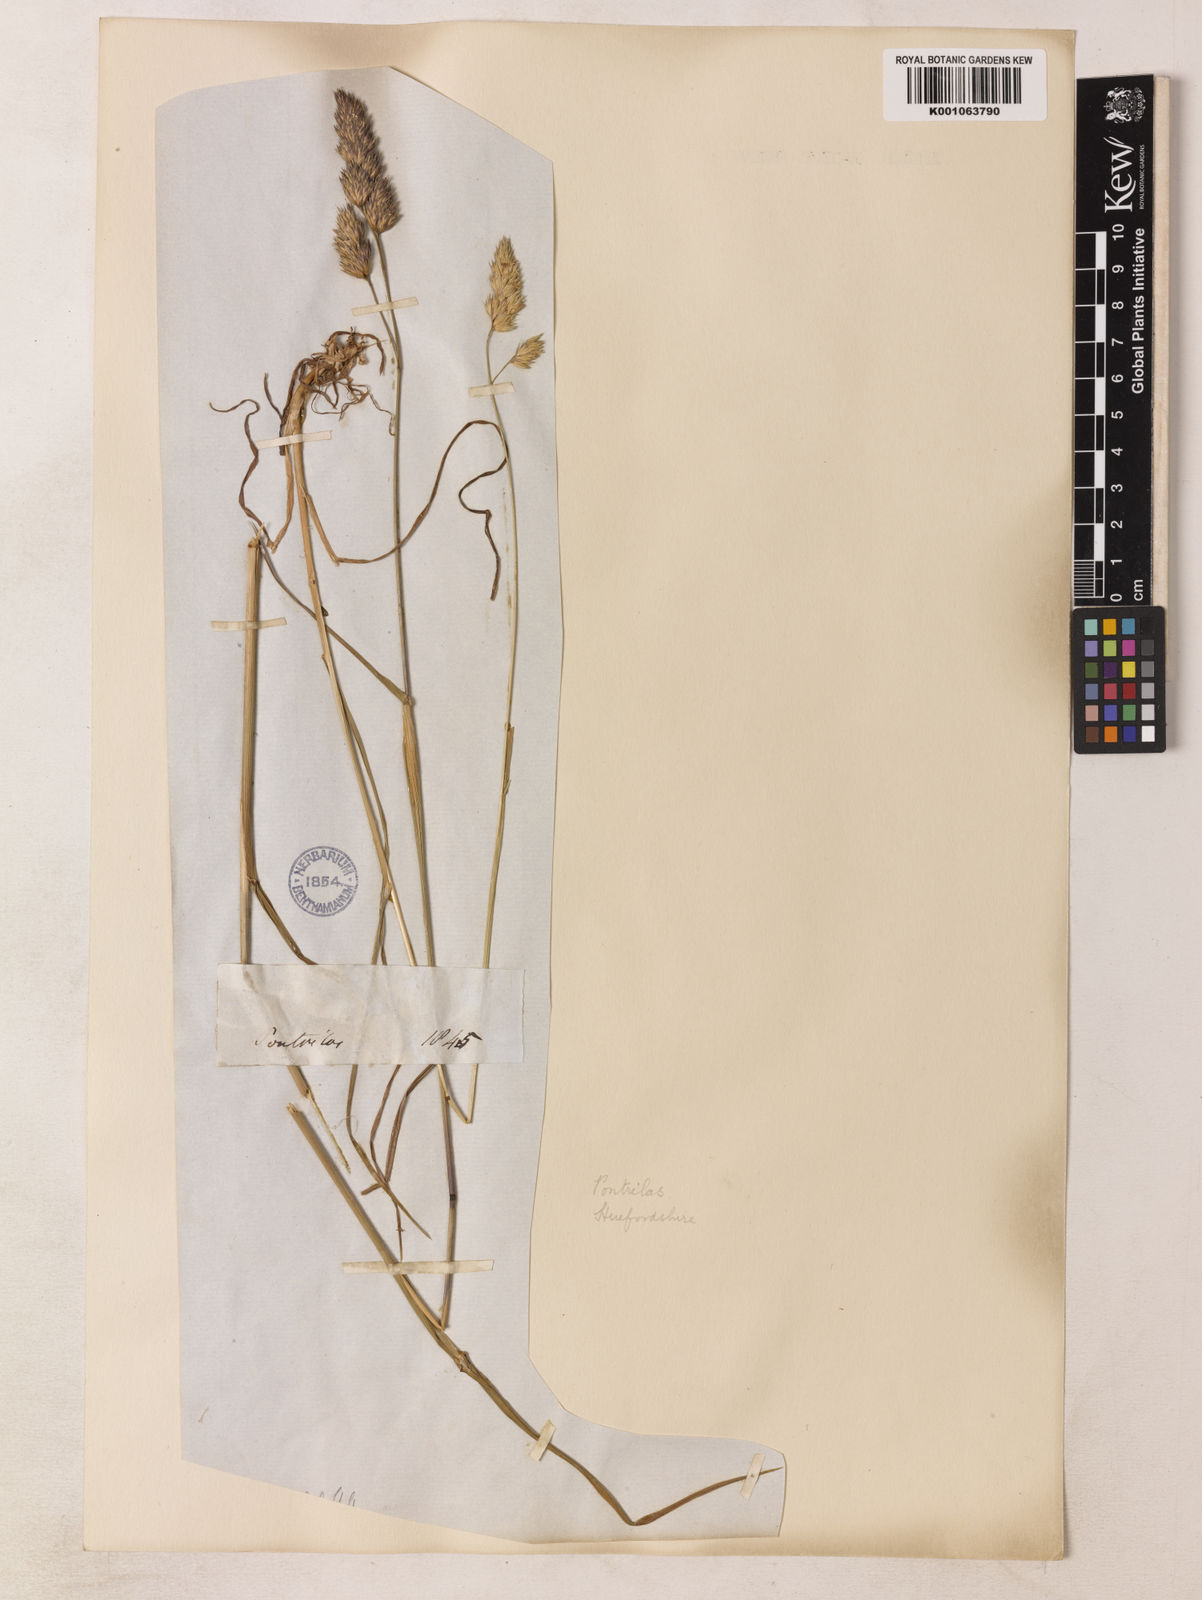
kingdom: Plantae
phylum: Tracheophyta
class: Liliopsida
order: Poales
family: Poaceae
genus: Dactylis
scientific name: Dactylis glomerata
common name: Orchardgrass
